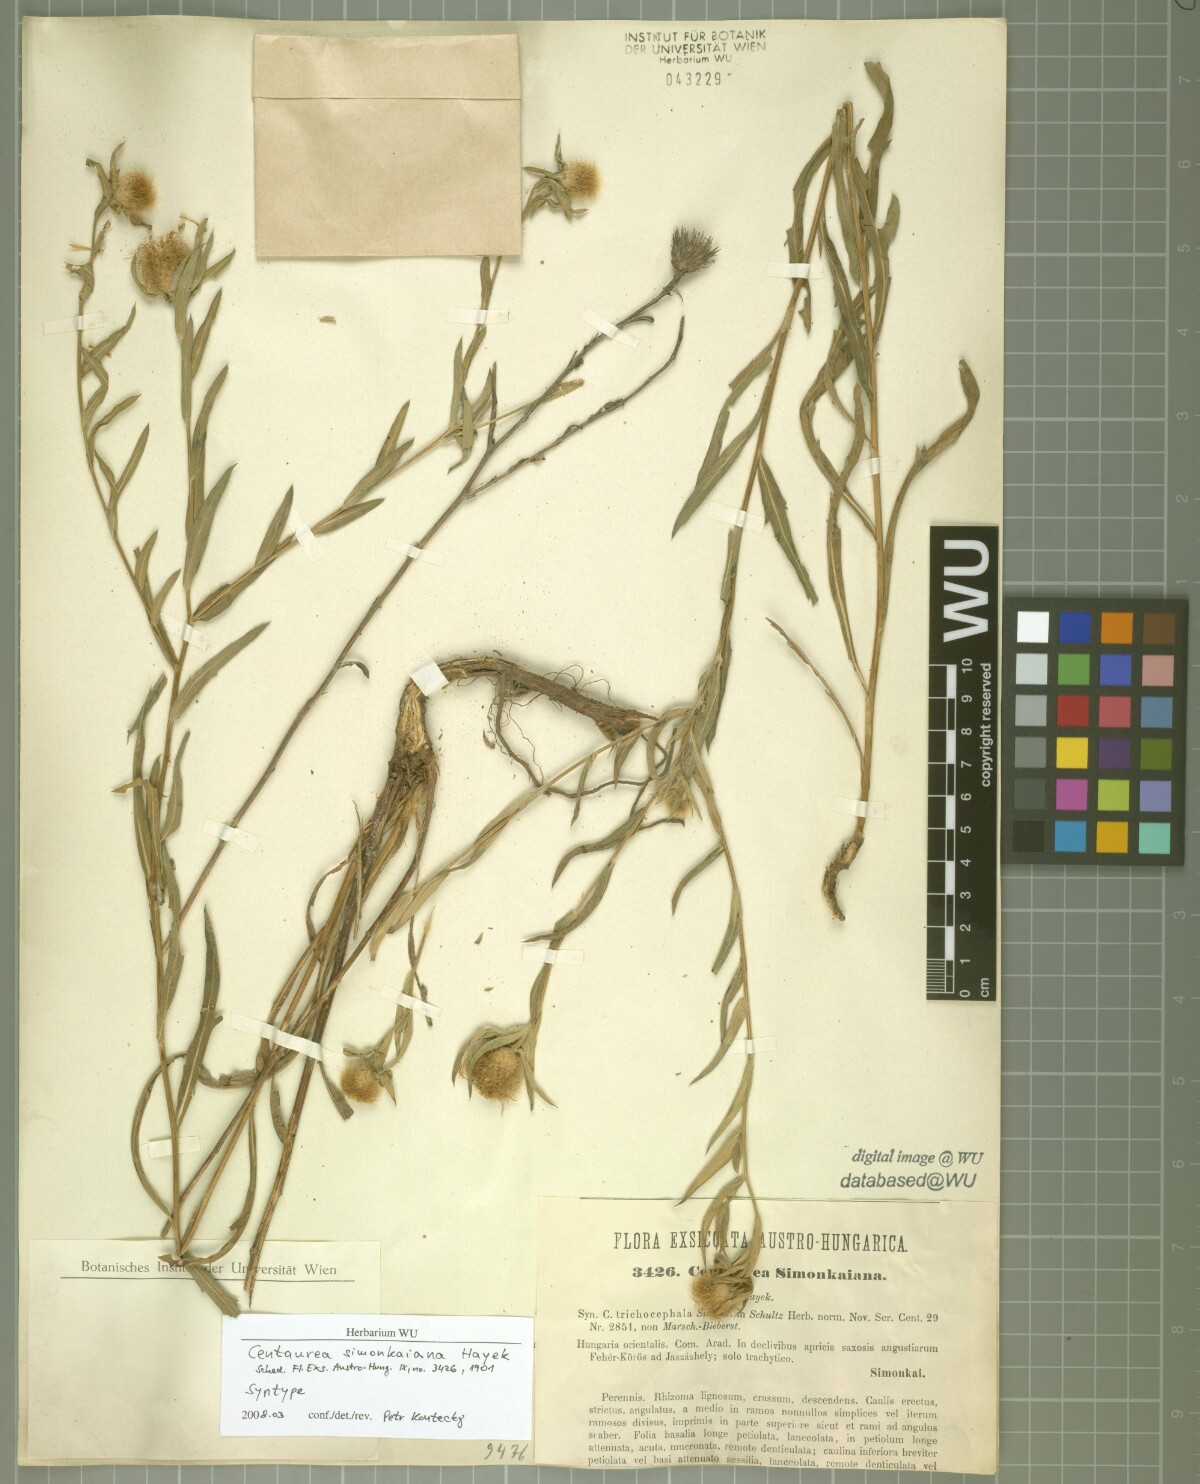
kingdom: Plantae
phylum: Tracheophyta
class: Magnoliopsida
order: Asterales
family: Asteraceae
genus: Centaurea
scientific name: Centaurea simonkaiana
